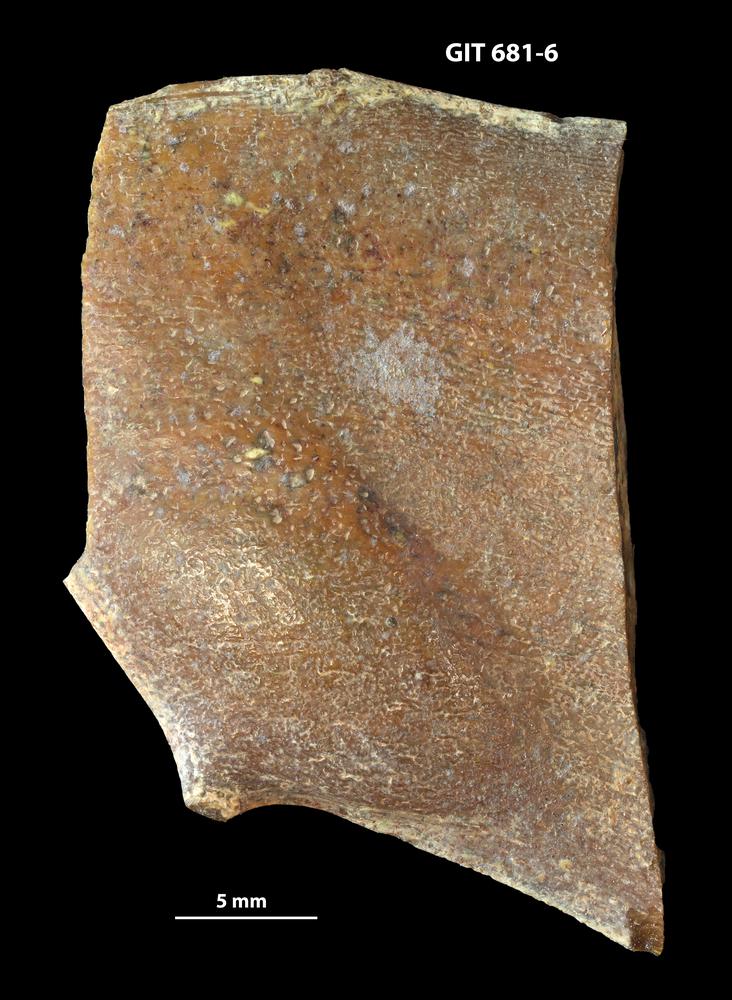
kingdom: Animalia
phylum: Chordata
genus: Hybosteus
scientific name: Hybosteus
